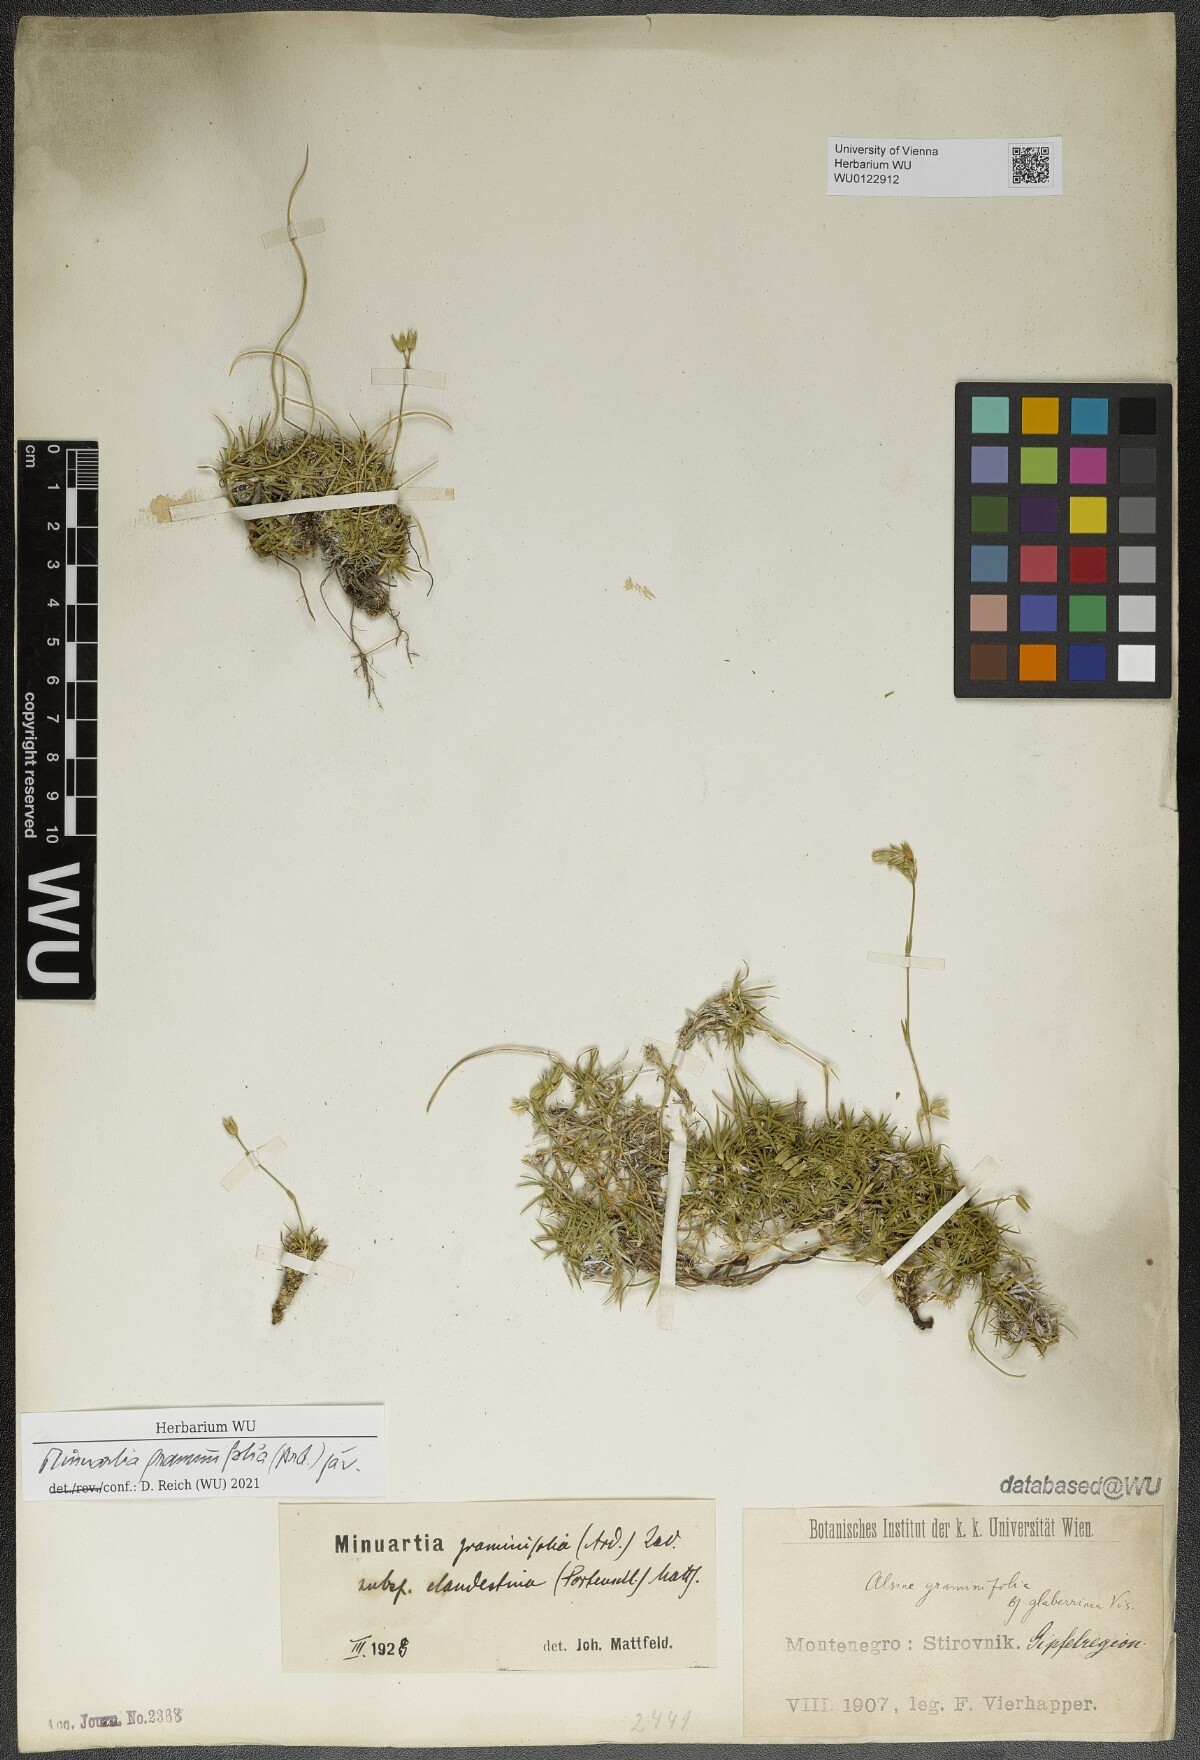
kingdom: Plantae
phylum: Tracheophyta
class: Magnoliopsida
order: Caryophyllales
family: Caryophyllaceae
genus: Mcneillia
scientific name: Mcneillia graminifolia
